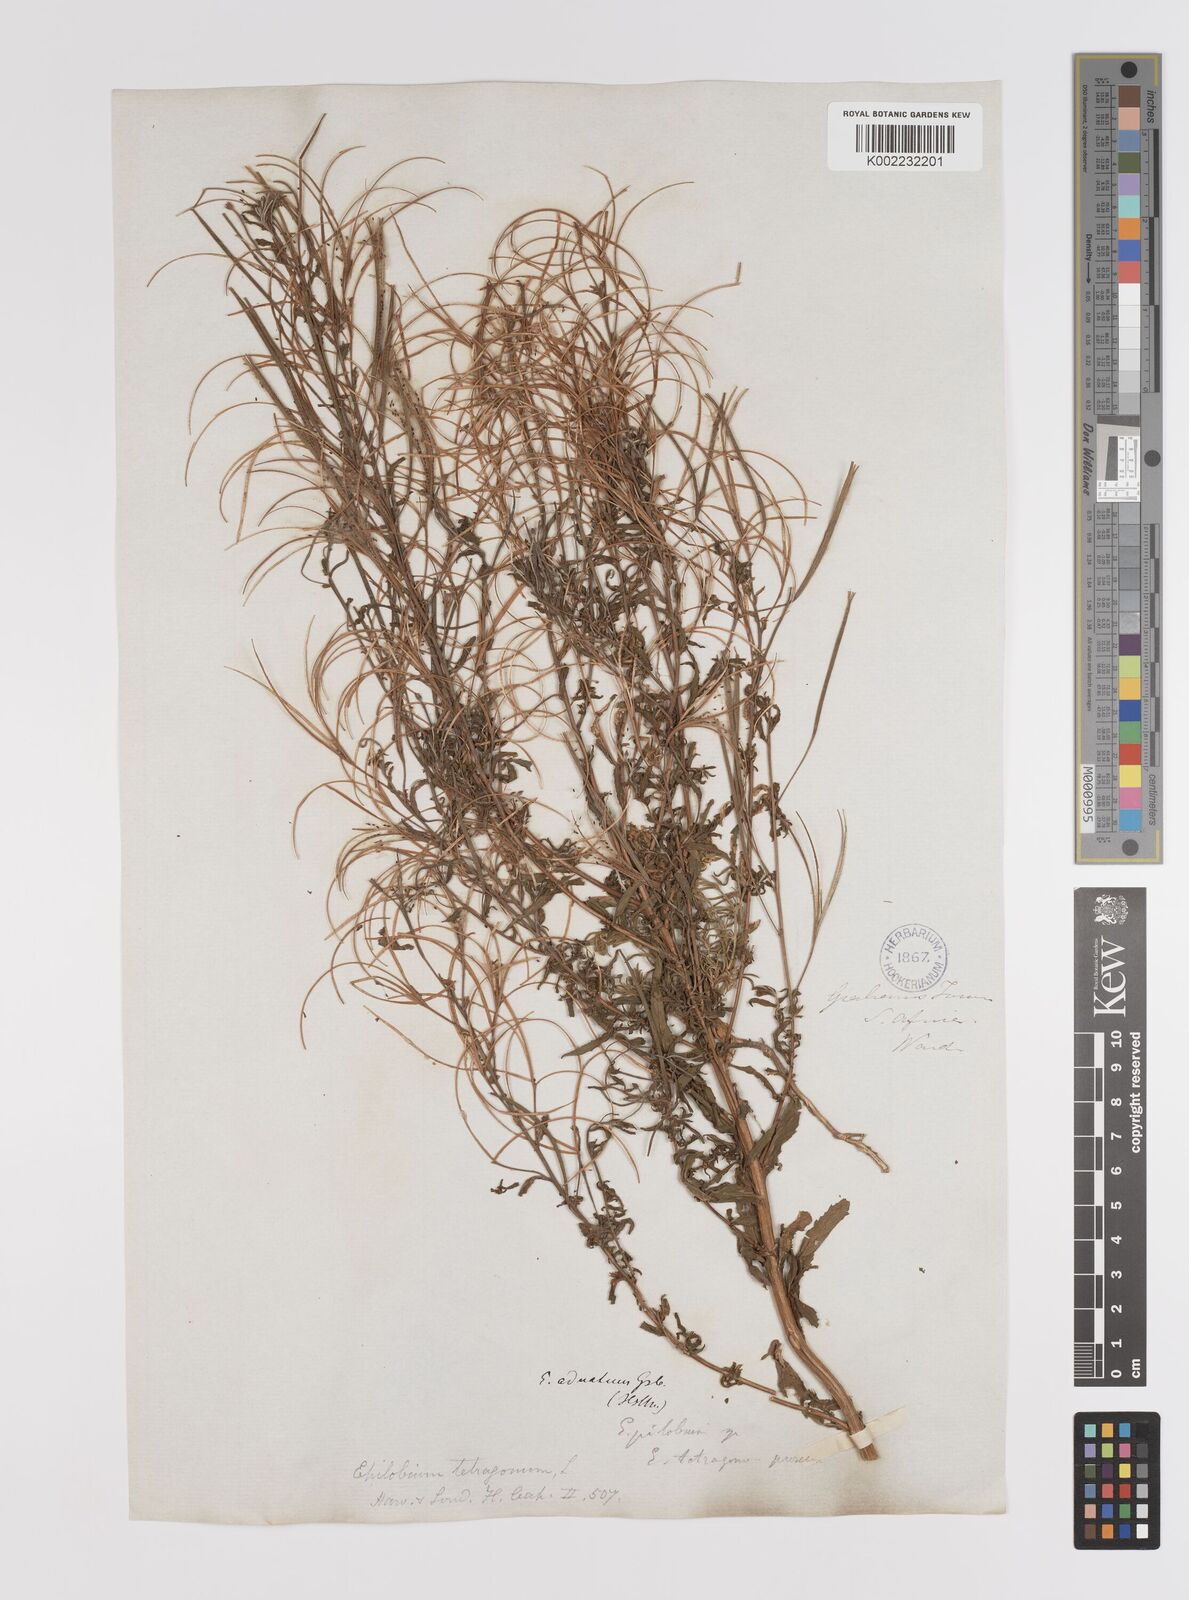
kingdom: Plantae
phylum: Tracheophyta
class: Magnoliopsida
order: Myrtales
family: Onagraceae
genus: Epilobium
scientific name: Epilobium tetragonum
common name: Square-stemmed willowherb
